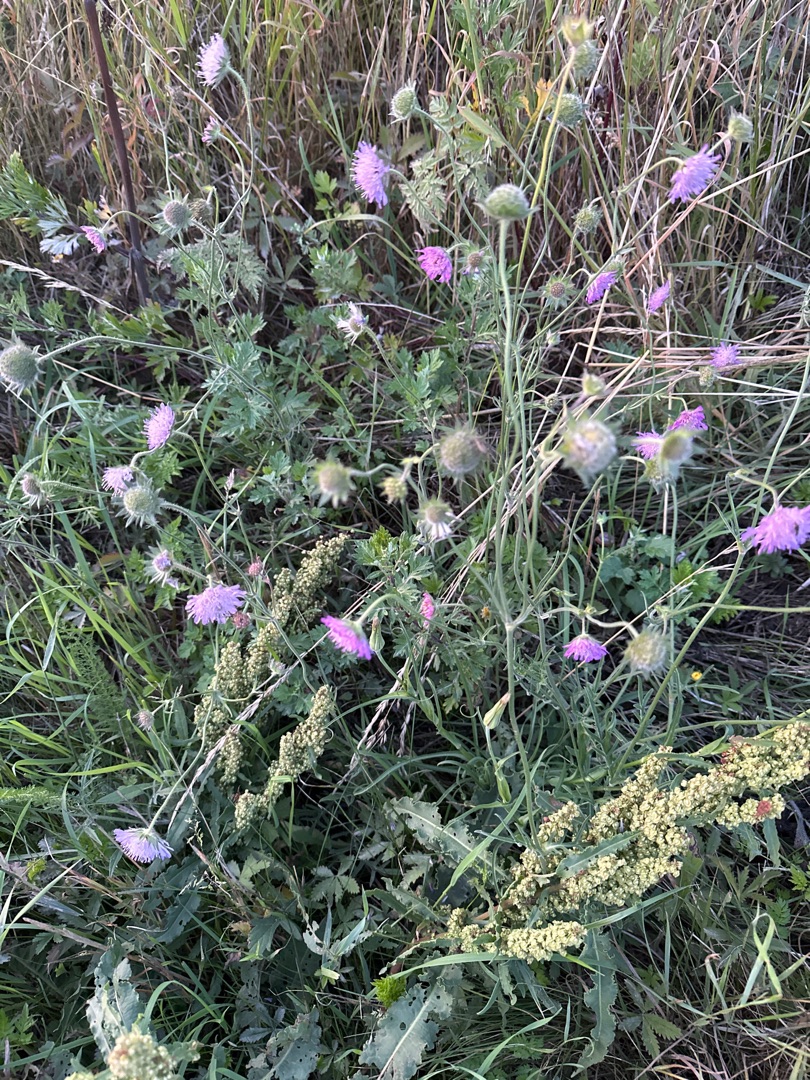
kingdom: Plantae
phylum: Tracheophyta
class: Magnoliopsida
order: Dipsacales
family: Caprifoliaceae
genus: Knautia
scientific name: Knautia arvensis
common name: Blåhat
